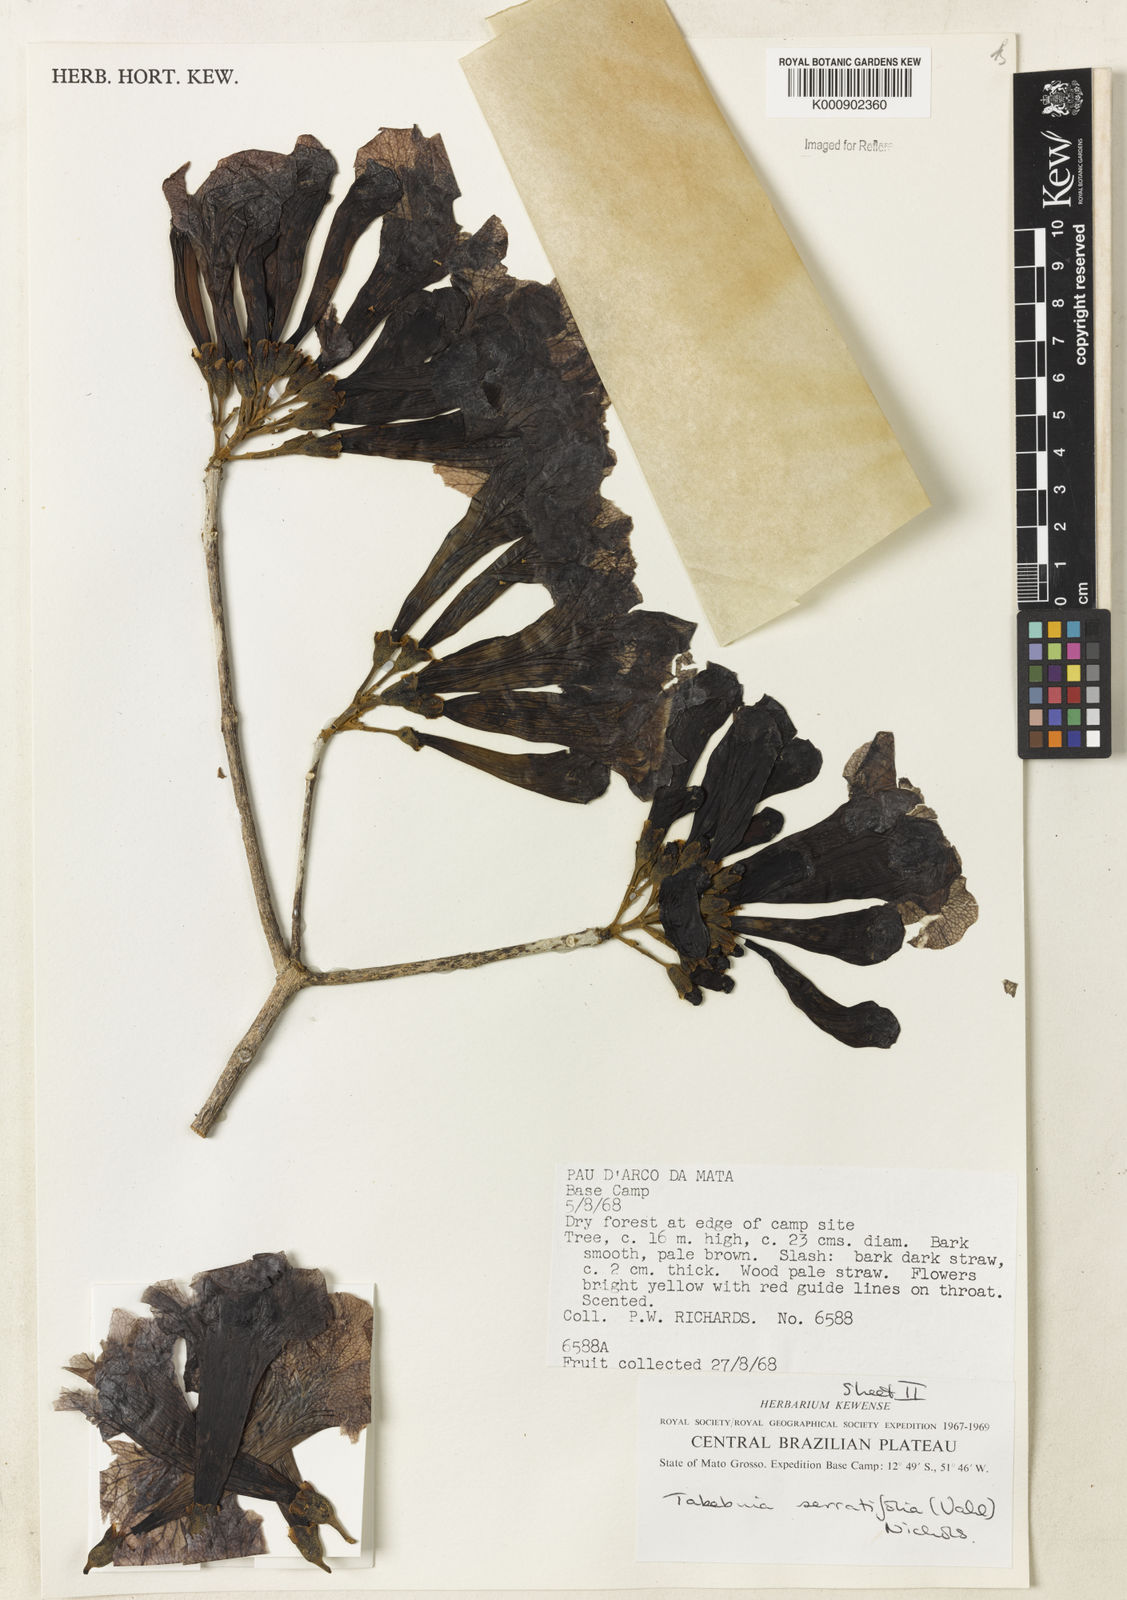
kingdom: Plantae
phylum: Tracheophyta
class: Magnoliopsida
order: Lamiales
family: Bignoniaceae
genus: Handroanthus
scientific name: Handroanthus serratifolius
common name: Yellow ipe
